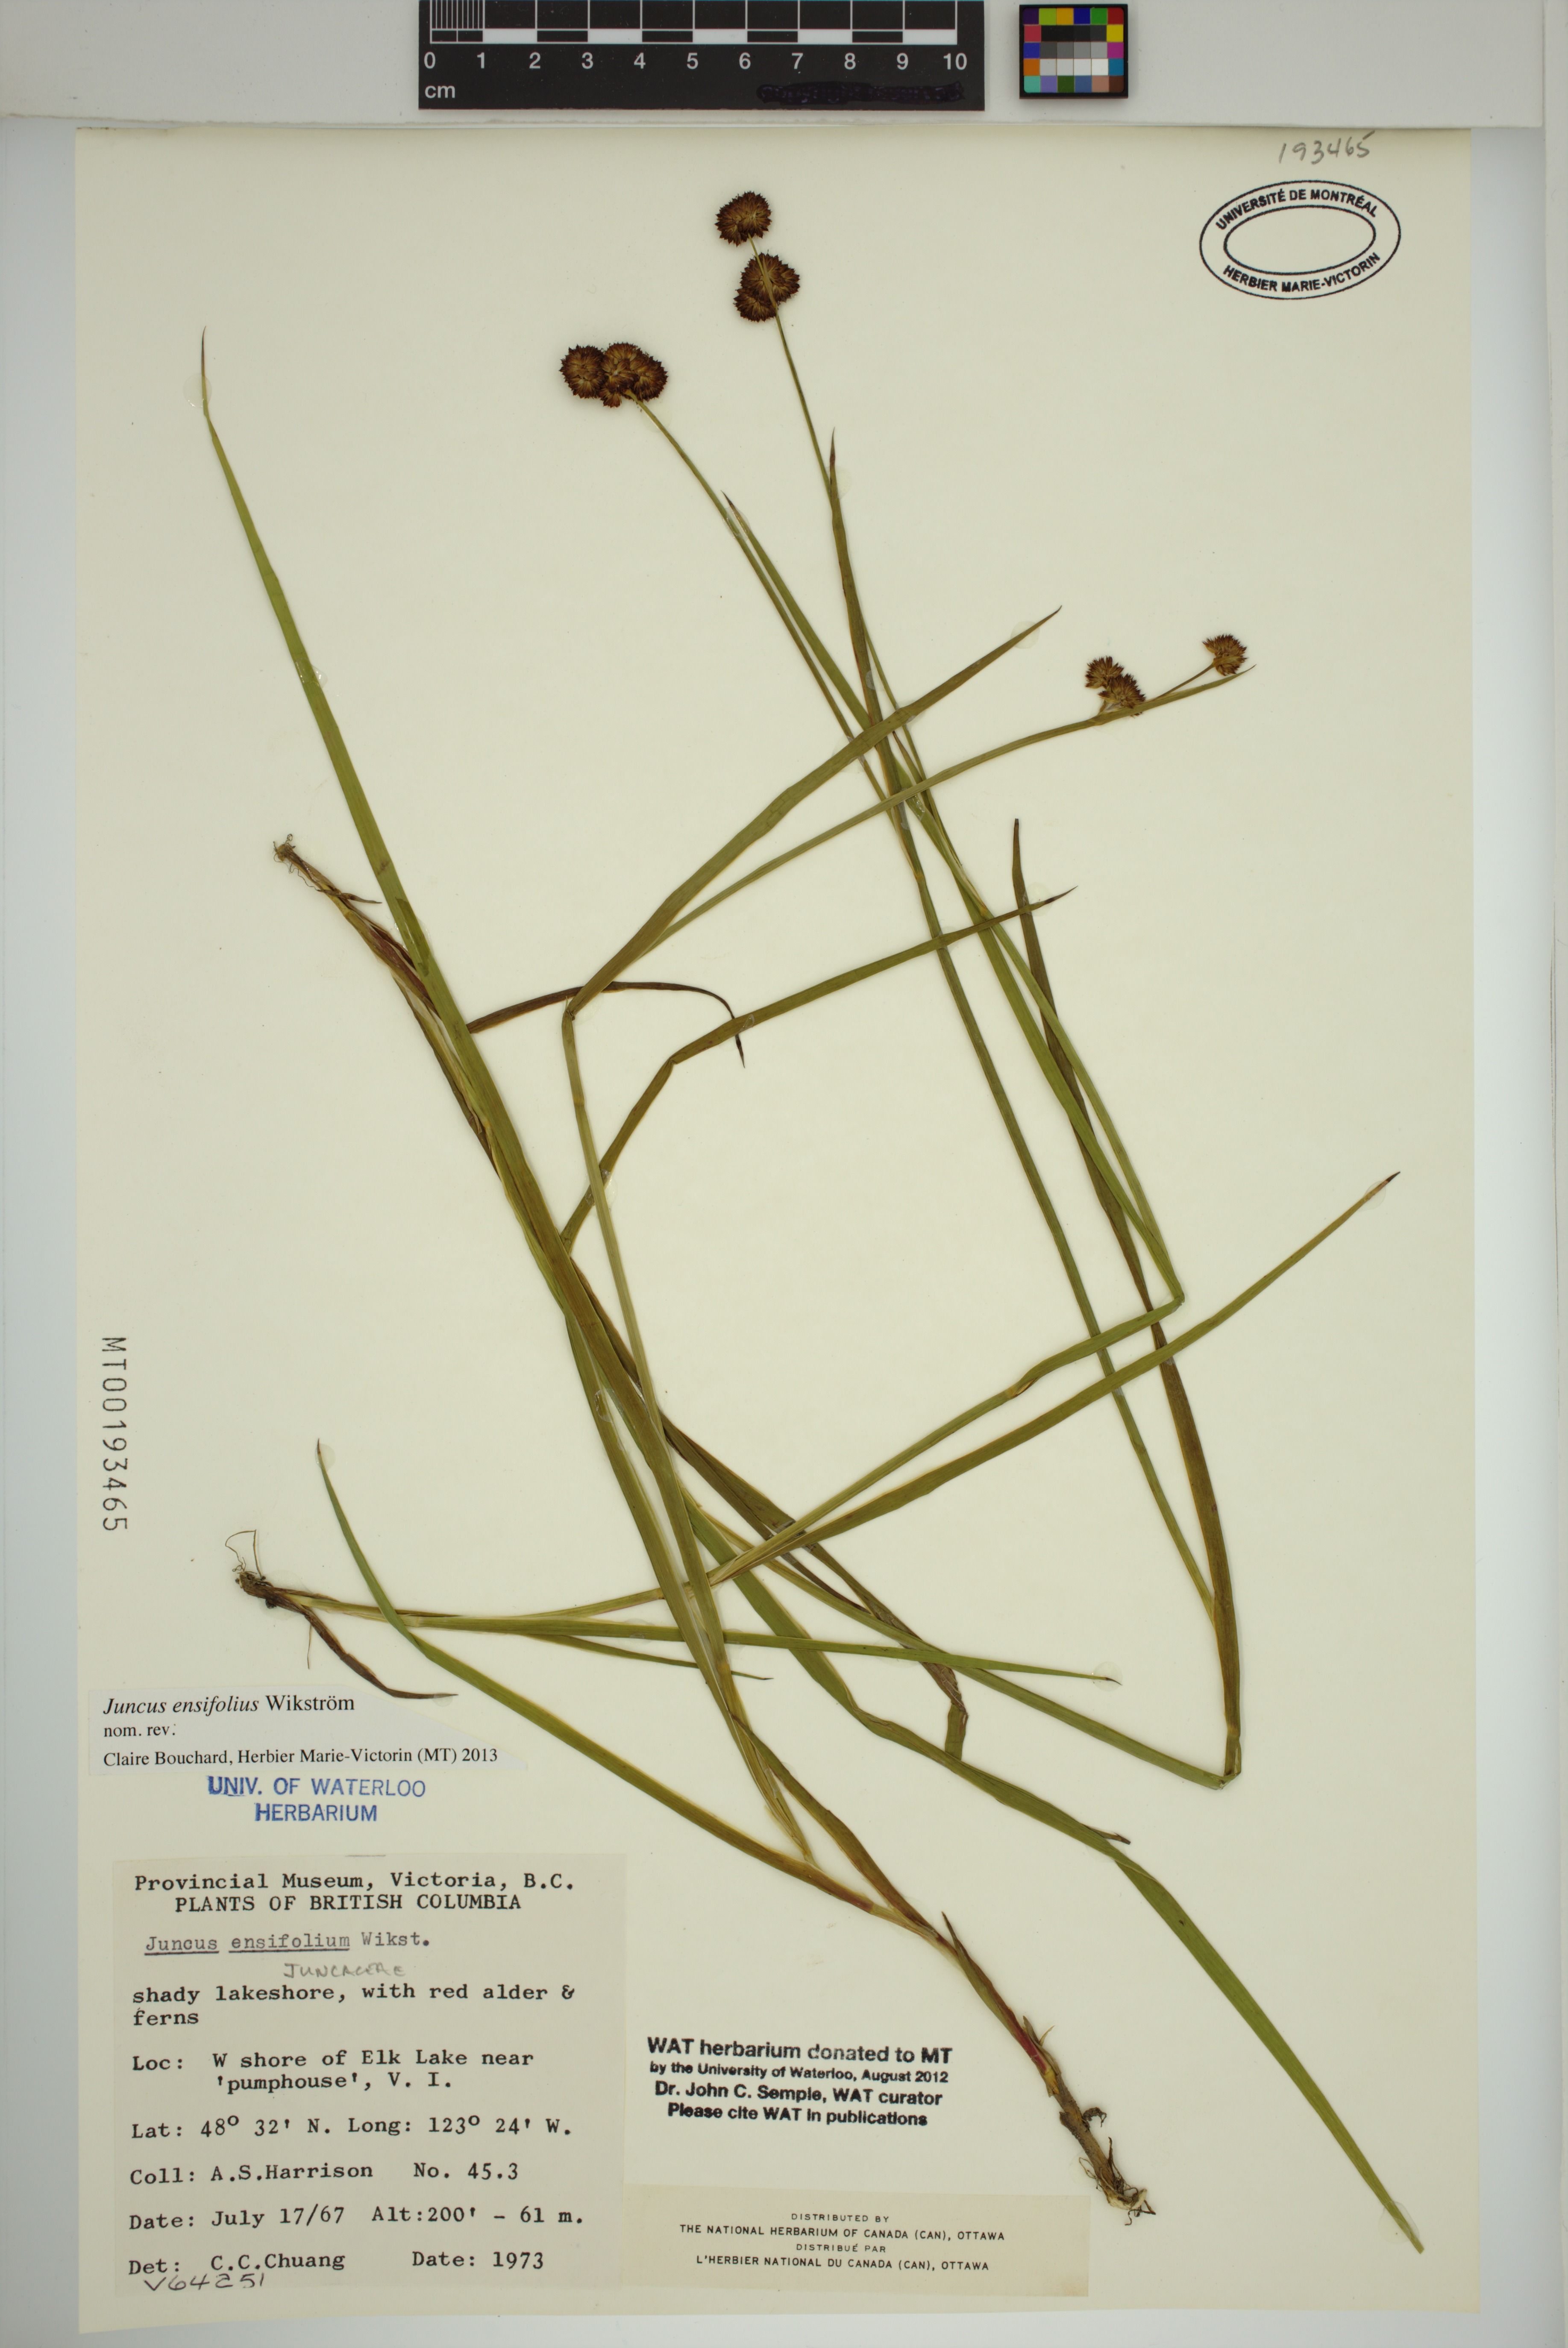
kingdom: Plantae
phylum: Tracheophyta
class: Liliopsida
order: Poales
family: Juncaceae
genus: Juncus
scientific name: Juncus ensifolius
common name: Sword-leaved rush
